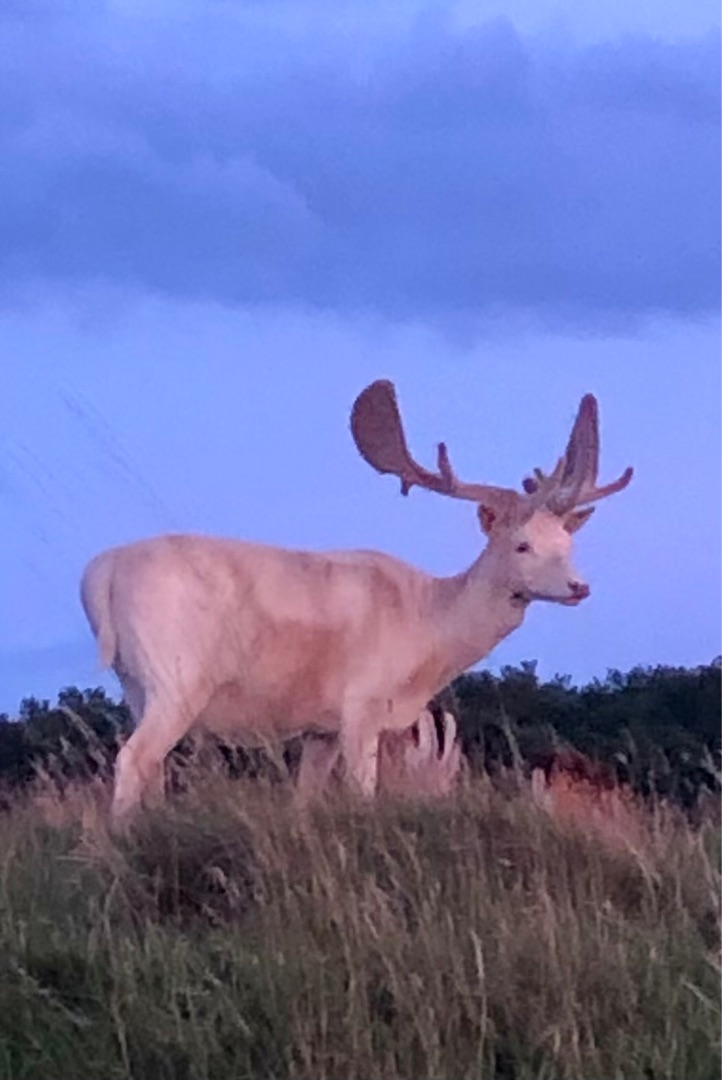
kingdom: Animalia
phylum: Chordata
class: Mammalia
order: Artiodactyla
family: Cervidae
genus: Dama
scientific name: Dama dama
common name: Dådyr
